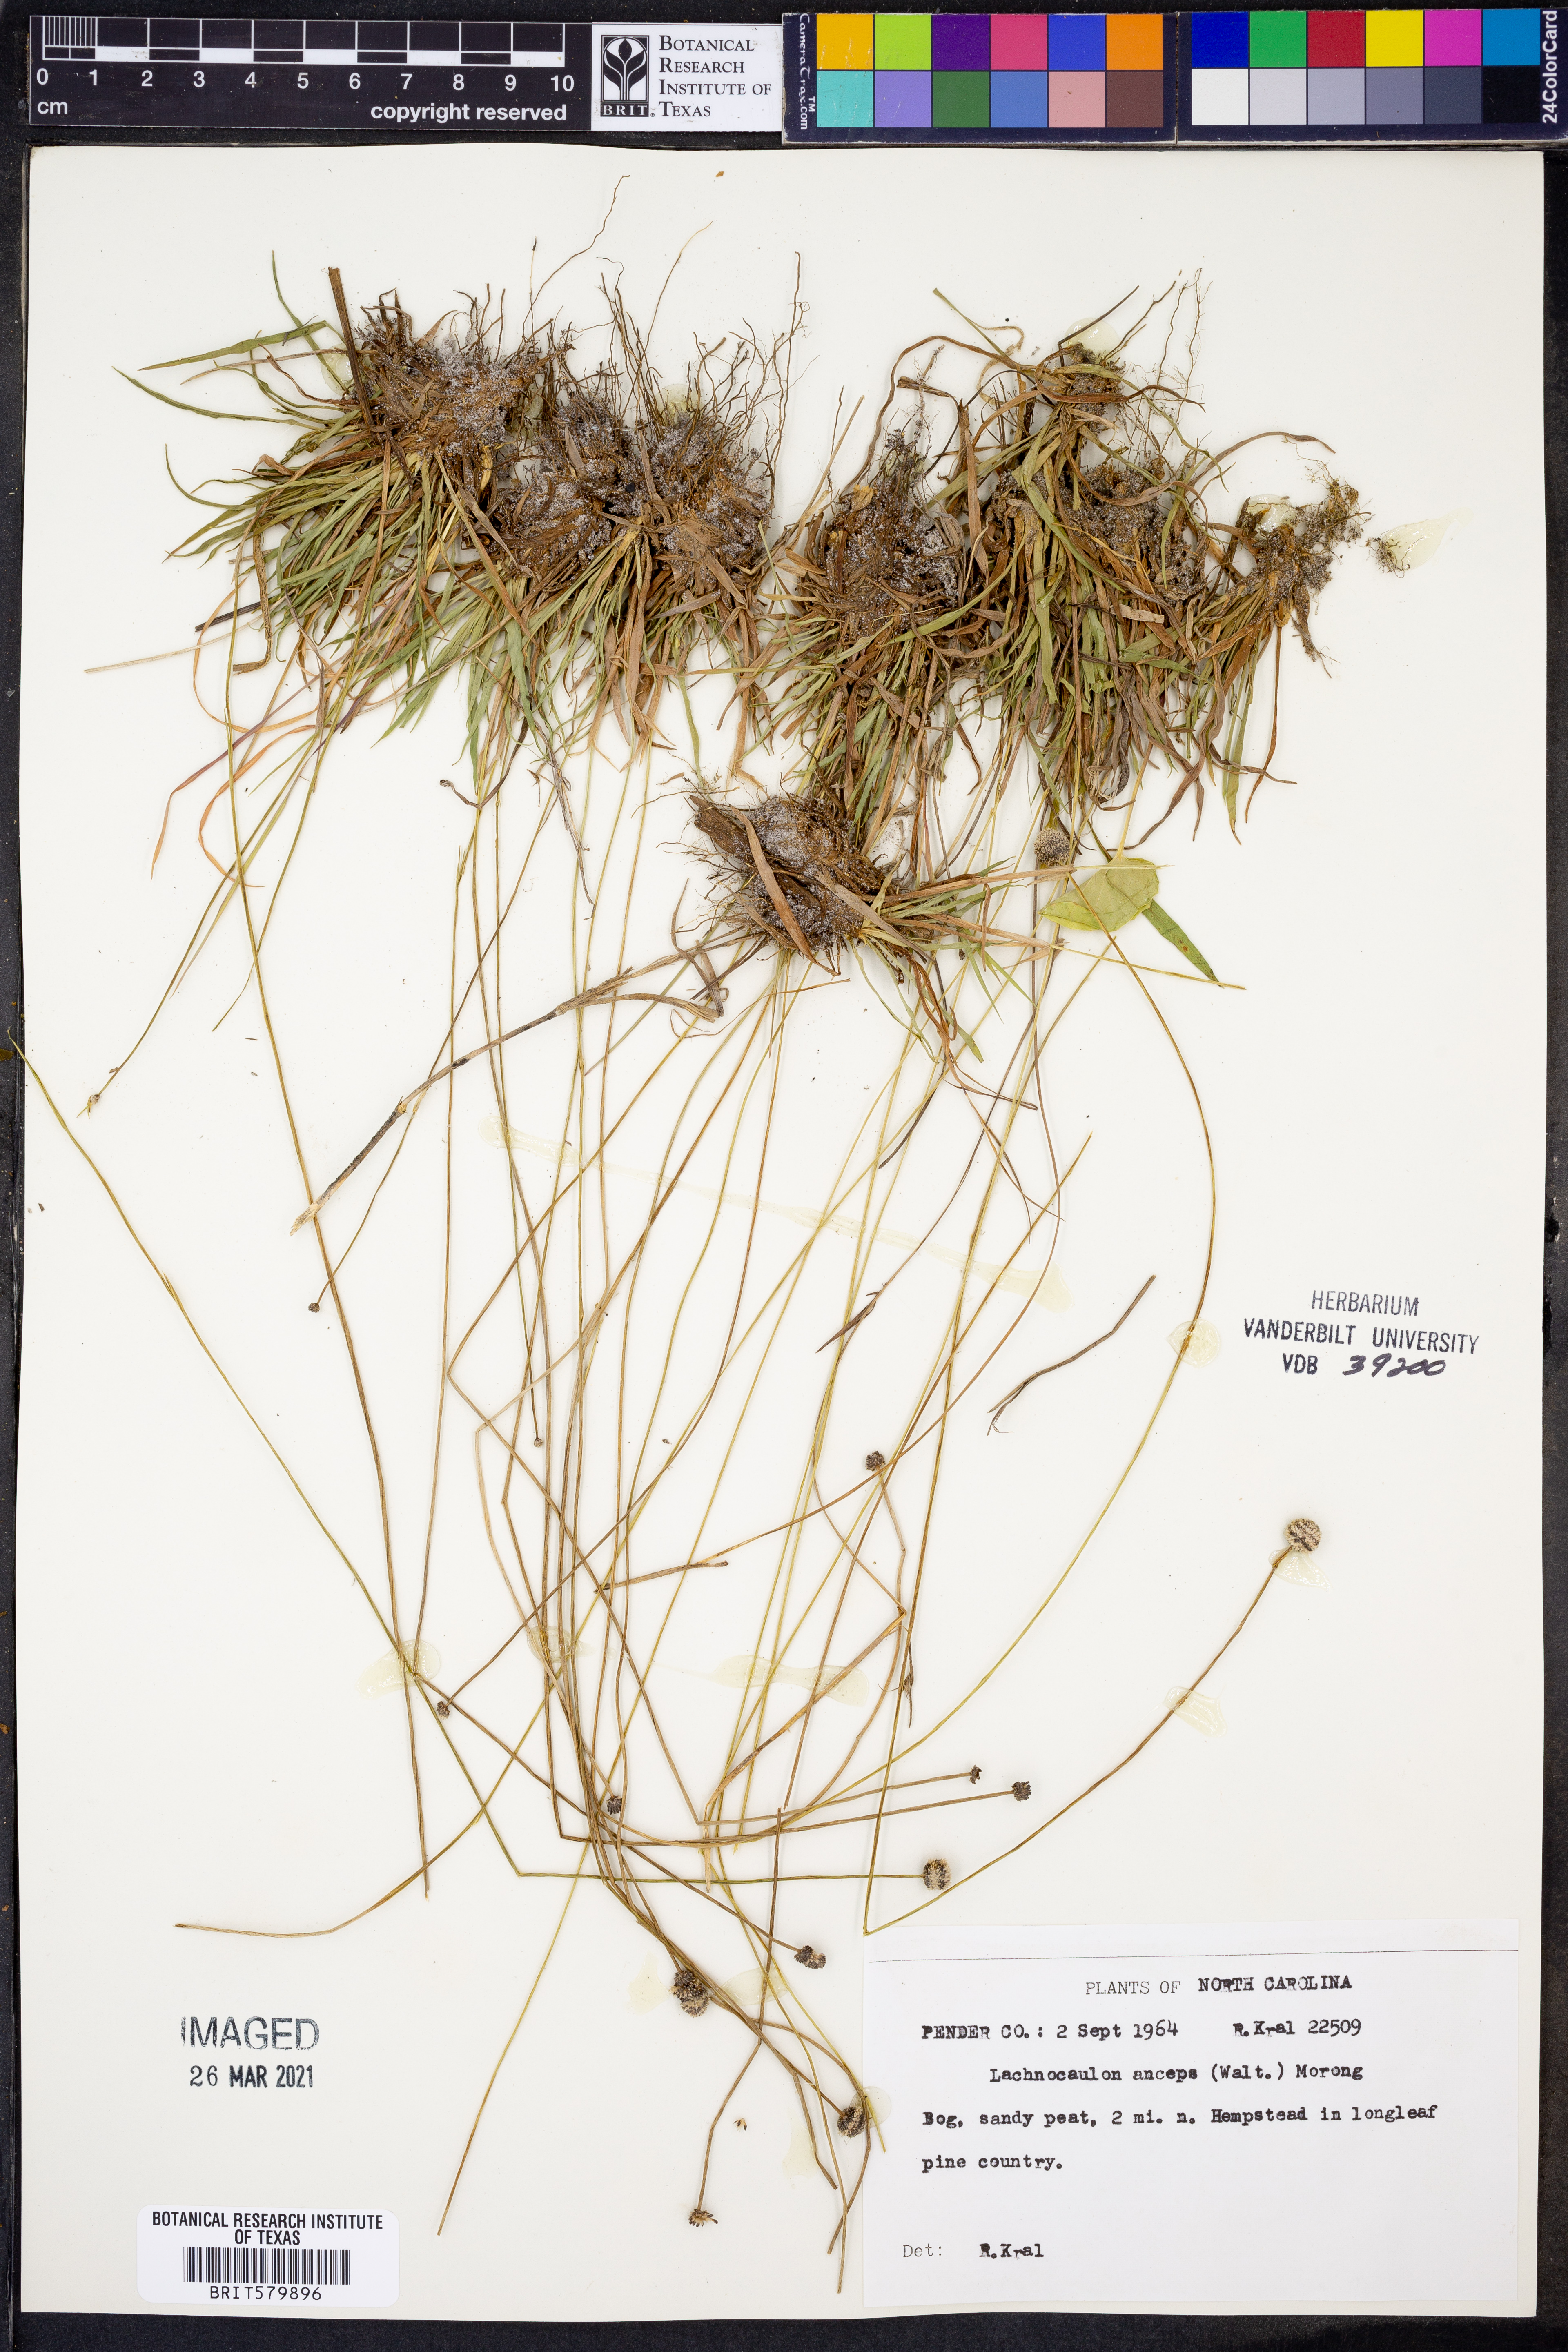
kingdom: Plantae
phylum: Tracheophyta
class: Liliopsida
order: Poales
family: Eriocaulaceae
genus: Paepalanthus
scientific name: Paepalanthus anceps
